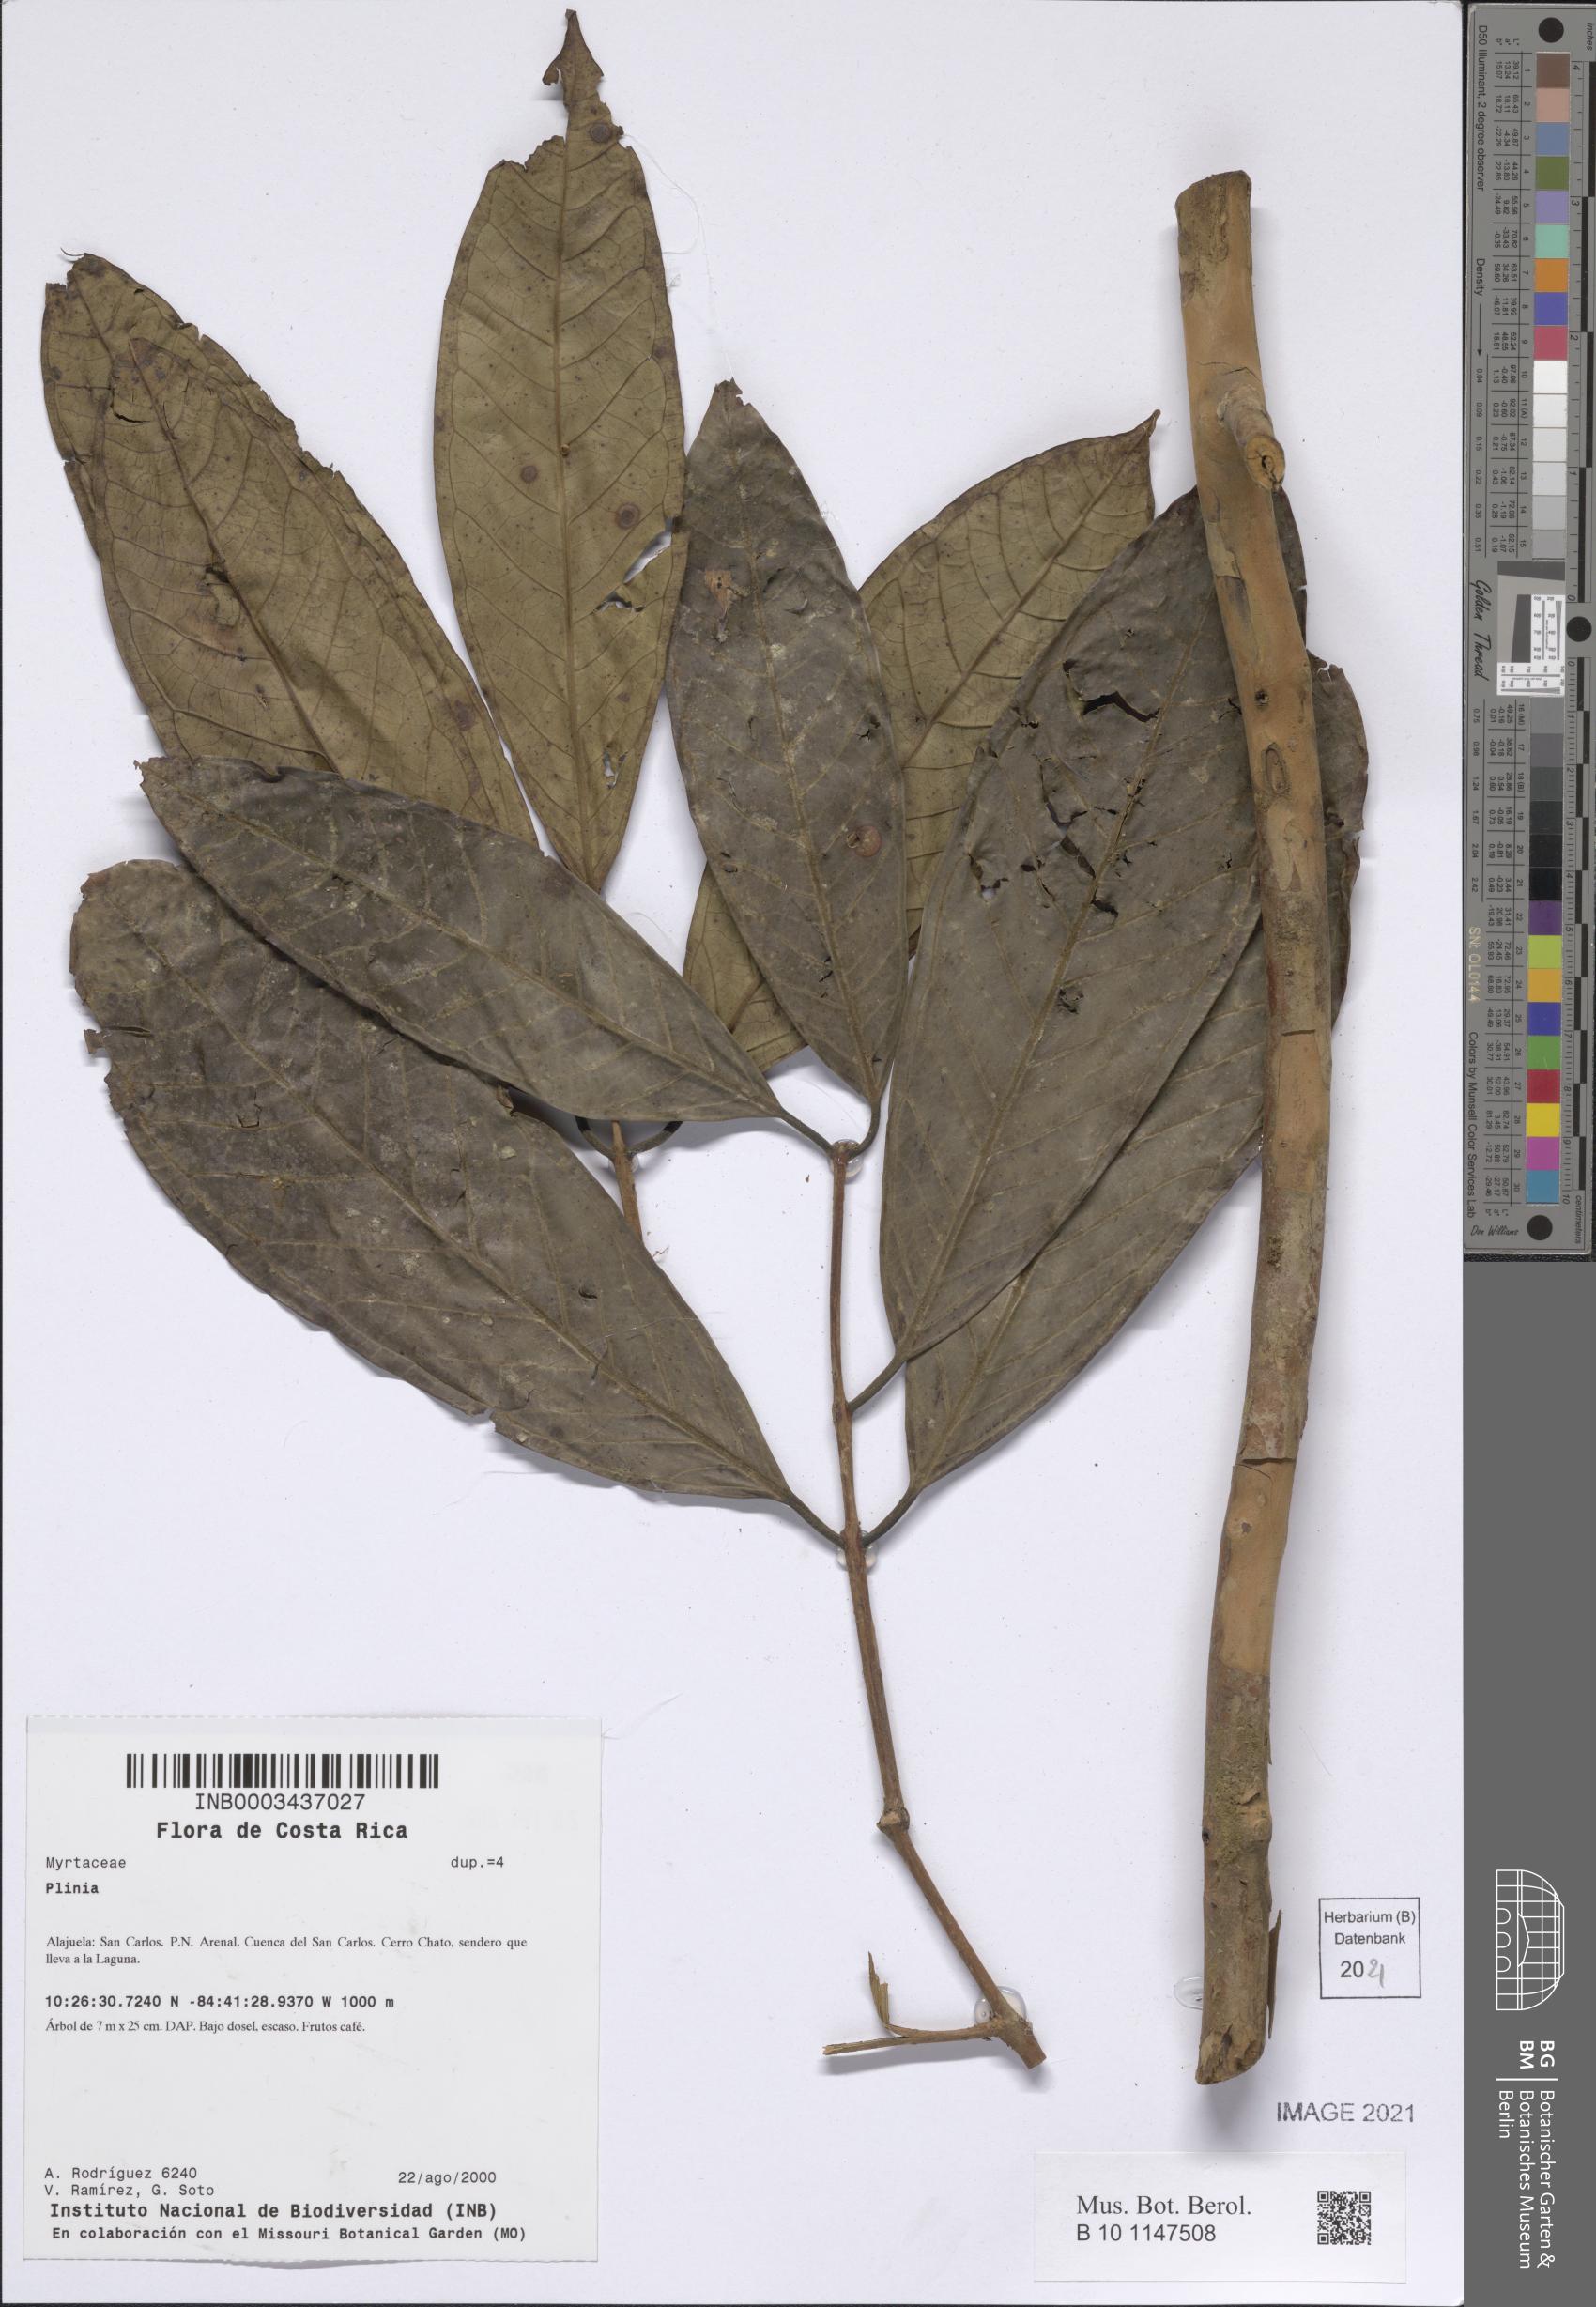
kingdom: Plantae
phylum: Tracheophyta
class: Magnoliopsida
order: Myrtales
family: Myrtaceae
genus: Plinia
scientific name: Plinia
